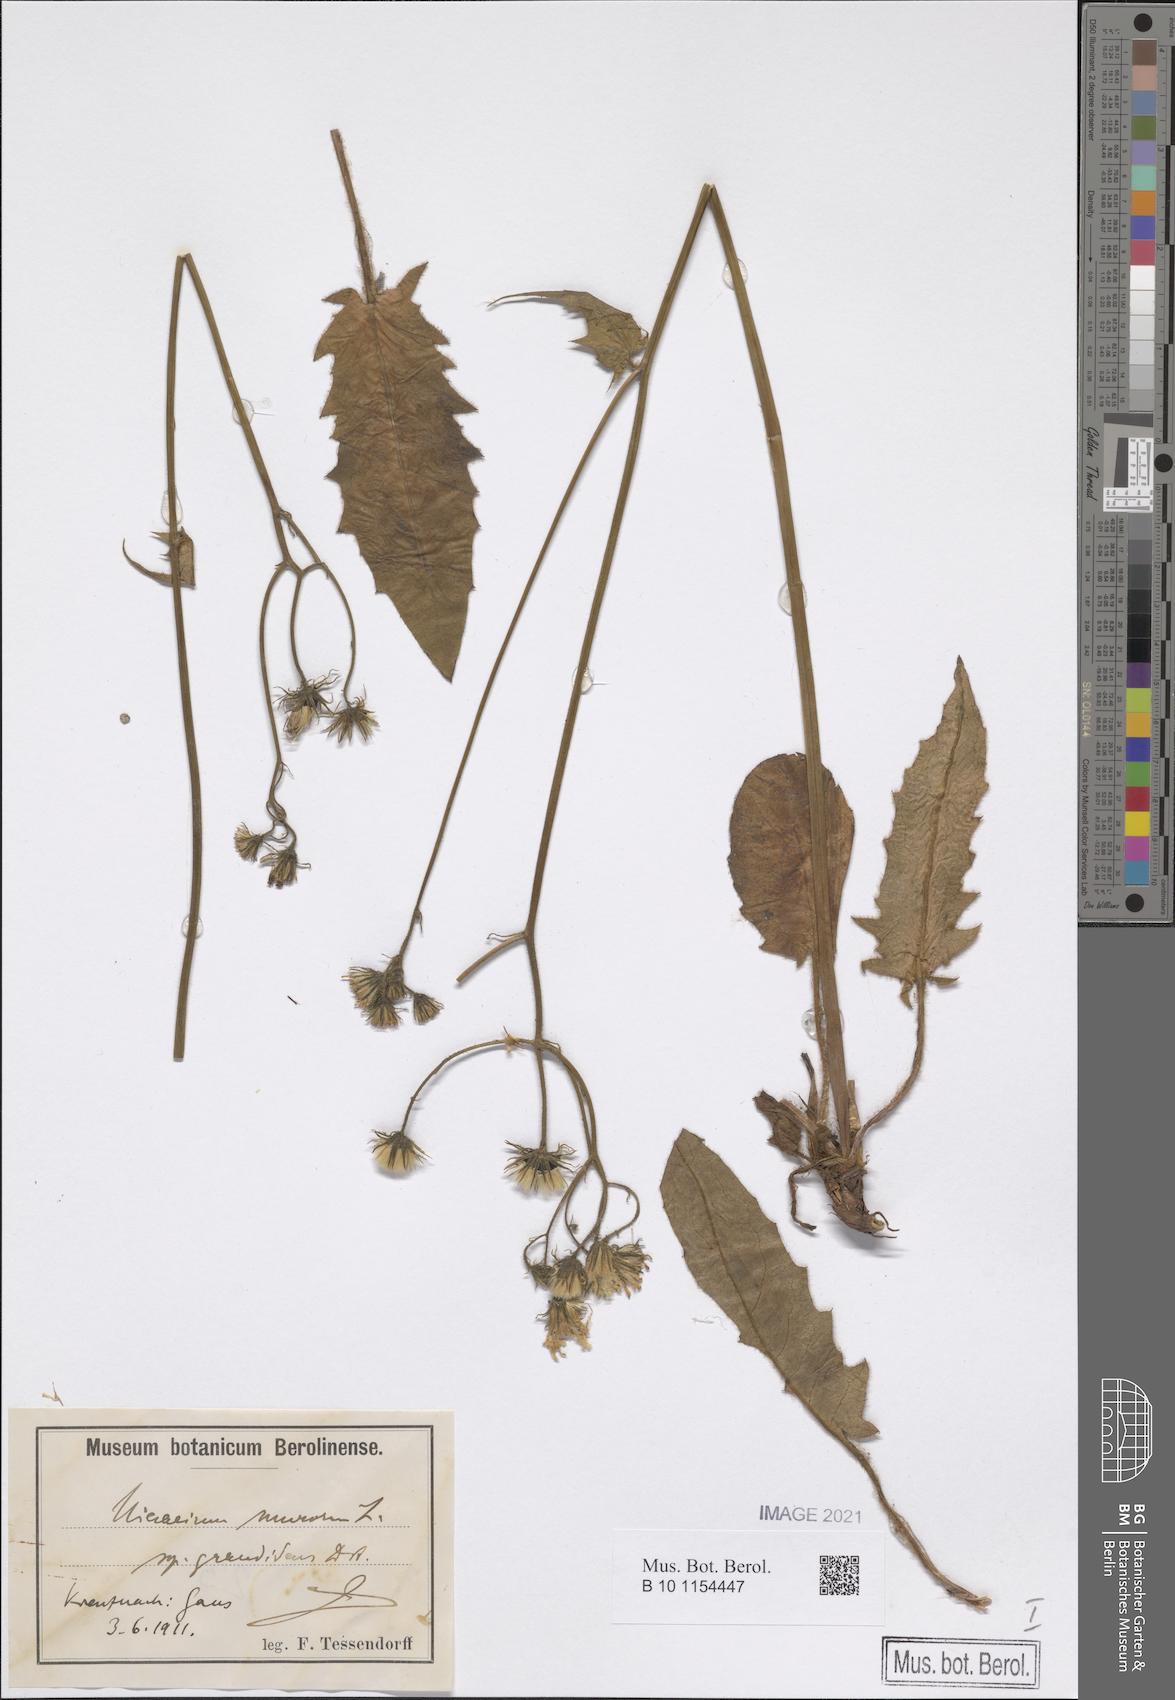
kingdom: Plantae
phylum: Tracheophyta
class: Magnoliopsida
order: Asterales
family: Asteraceae
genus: Hieracium
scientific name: Hieracium murorum
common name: Wall hawkweed
